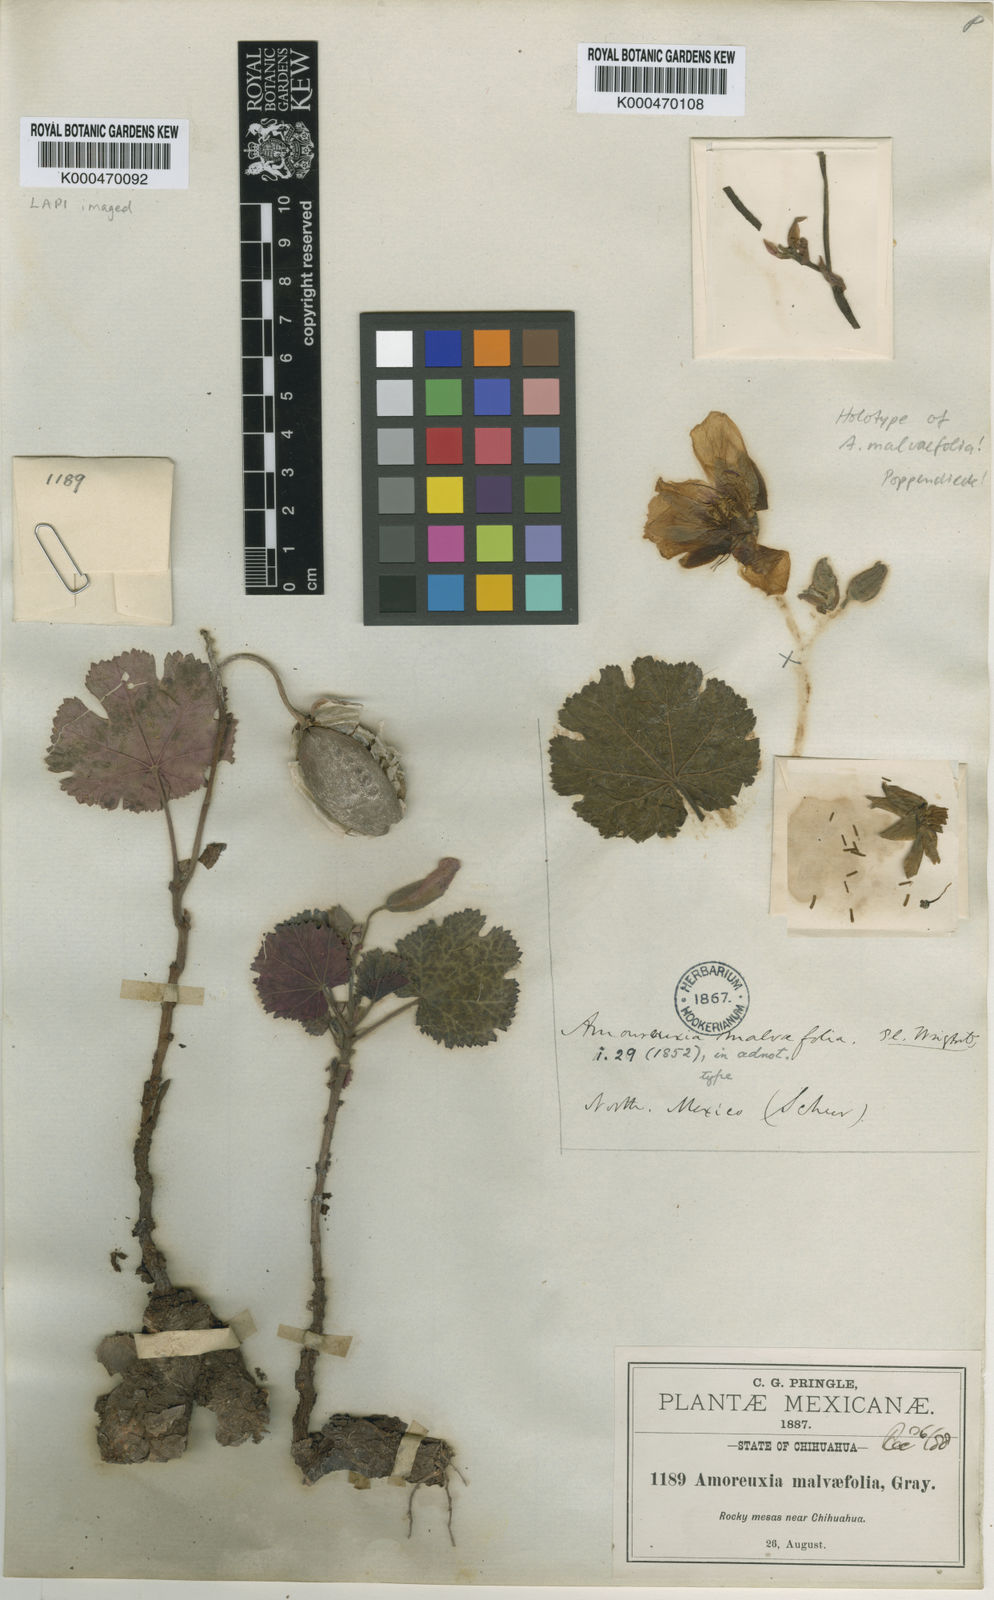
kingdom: Plantae
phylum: Tracheophyta
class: Magnoliopsida
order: Malvales
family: Cochlospermaceae
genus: Cochlospermum
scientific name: Cochlospermum malvifolium
